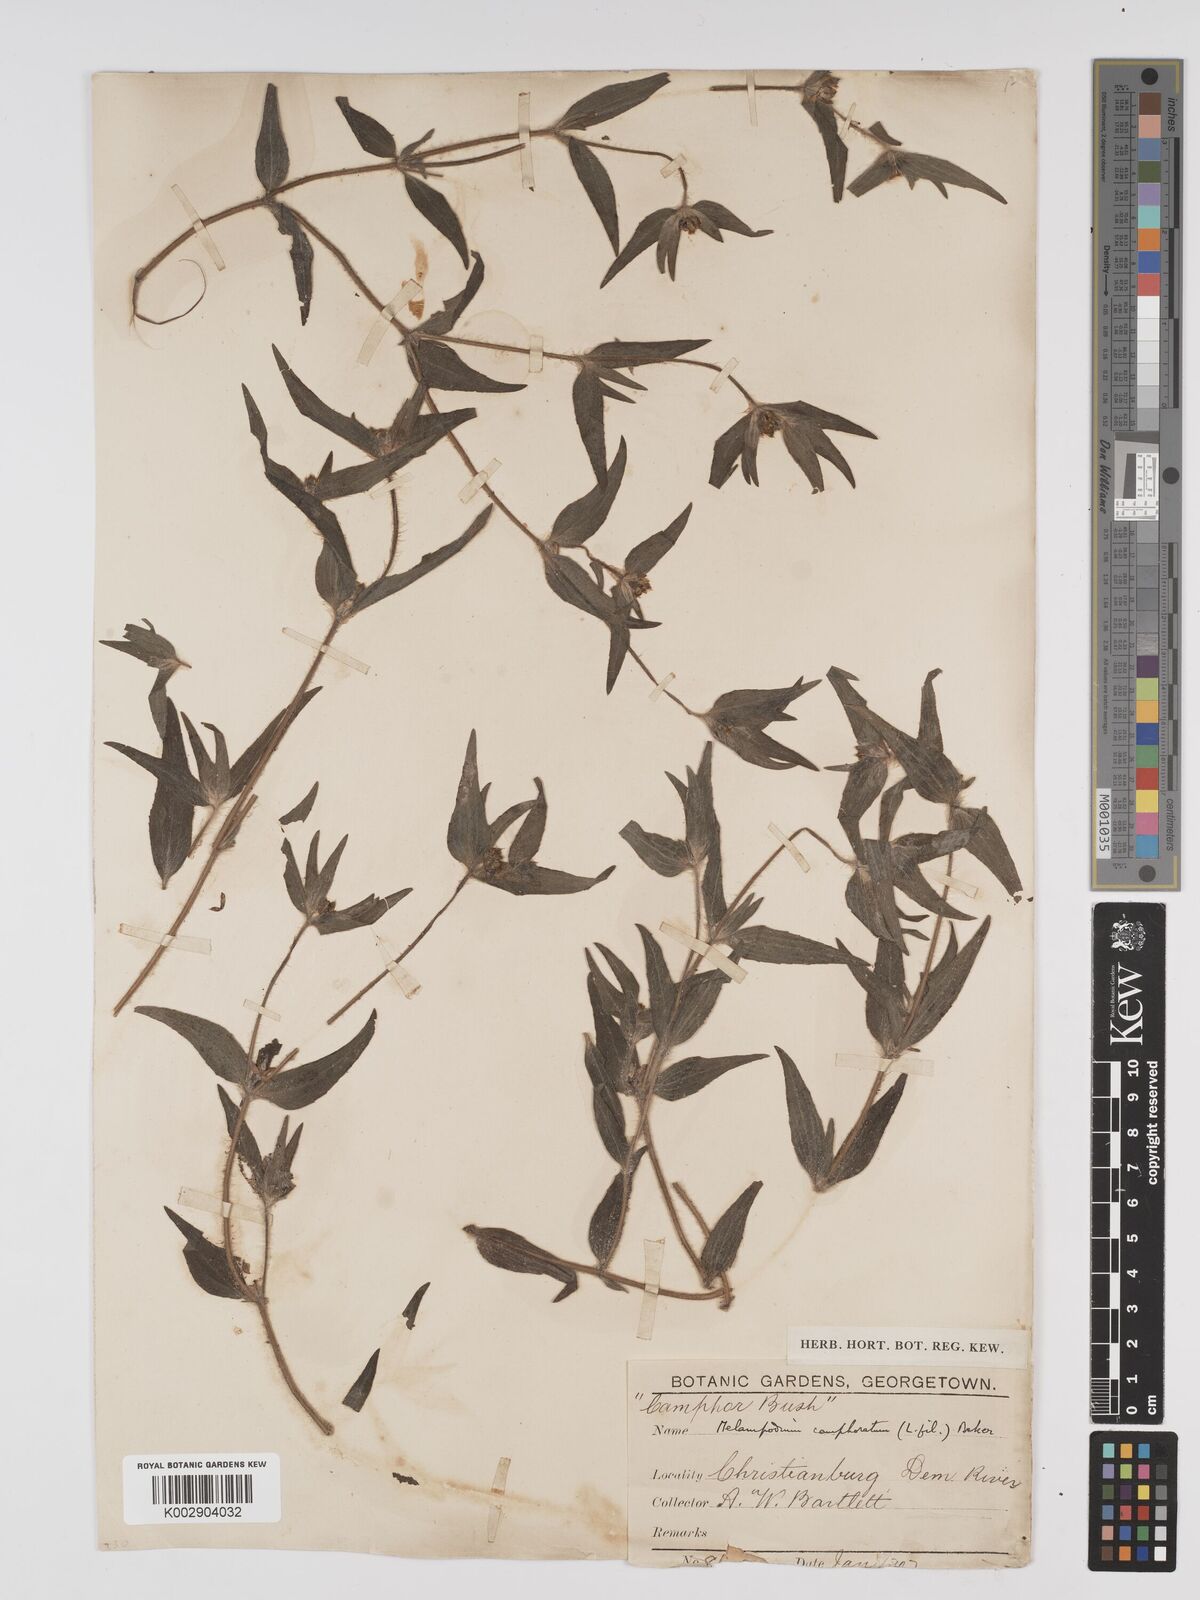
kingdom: Plantae
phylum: Tracheophyta
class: Magnoliopsida
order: Asterales
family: Asteraceae
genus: Unxia
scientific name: Unxia camphorata
